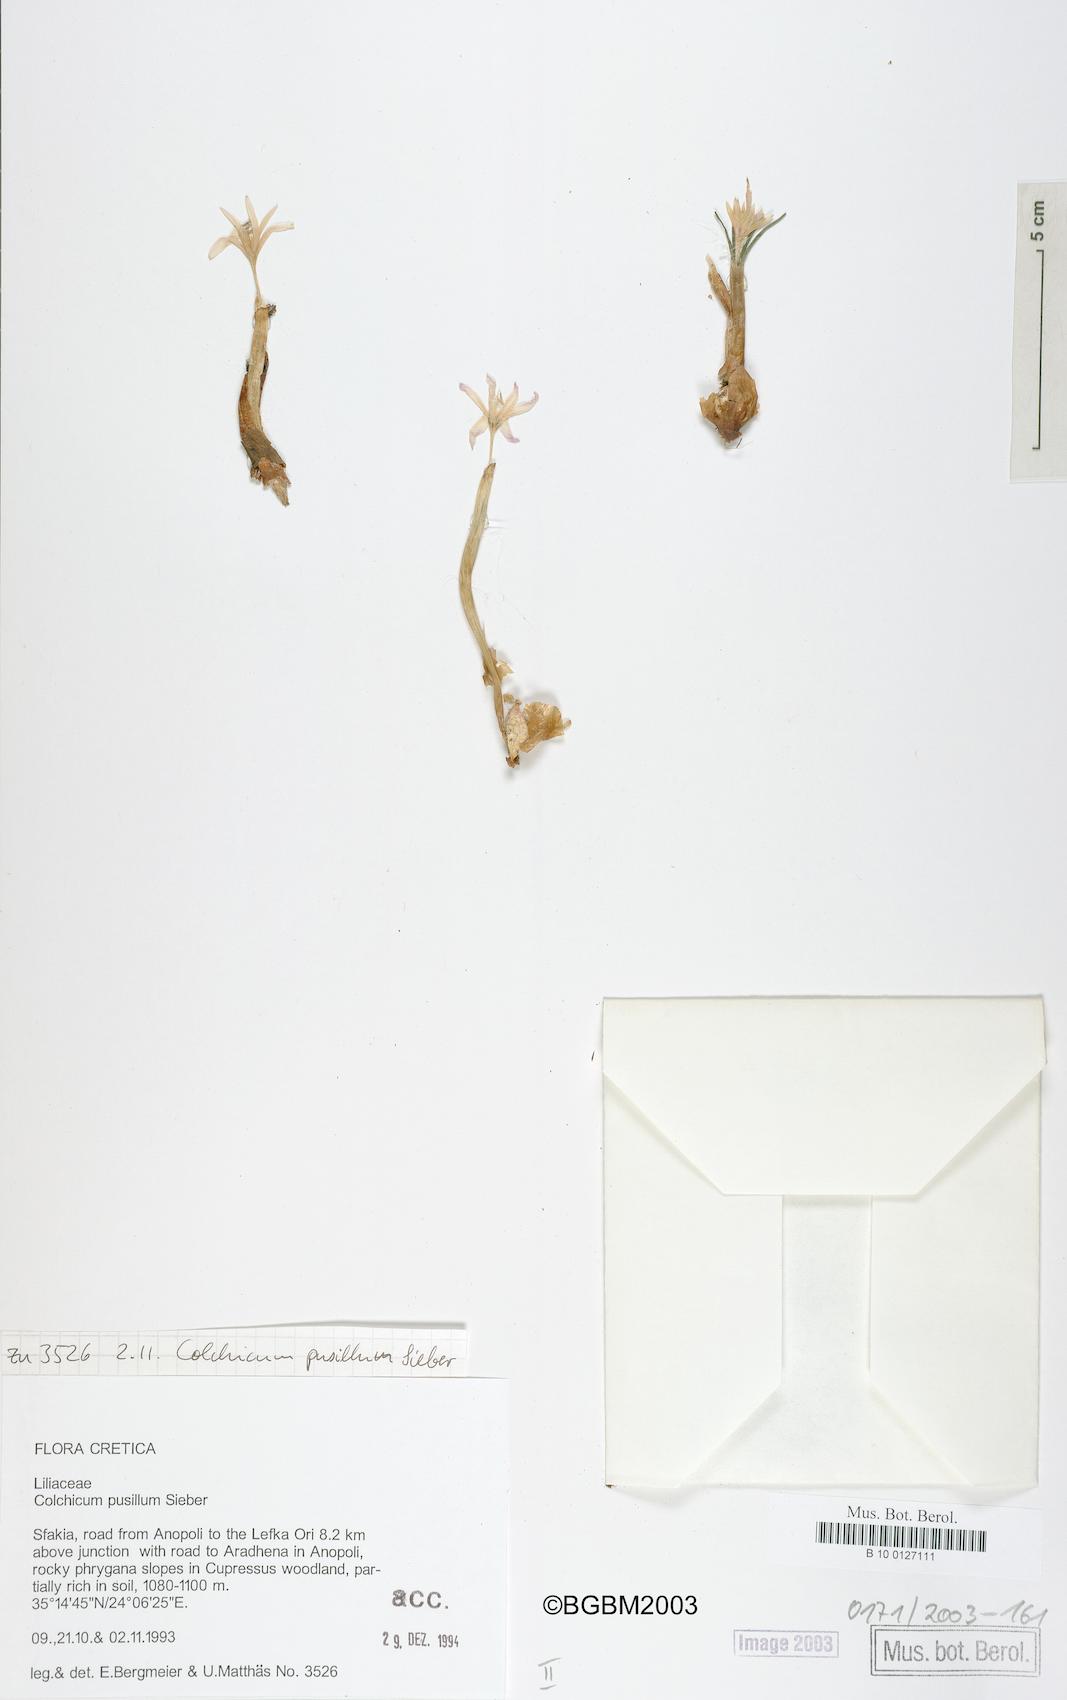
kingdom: Plantae
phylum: Tracheophyta
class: Liliopsida
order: Liliales
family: Colchicaceae
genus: Colchicum
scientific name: Colchicum pusillum
